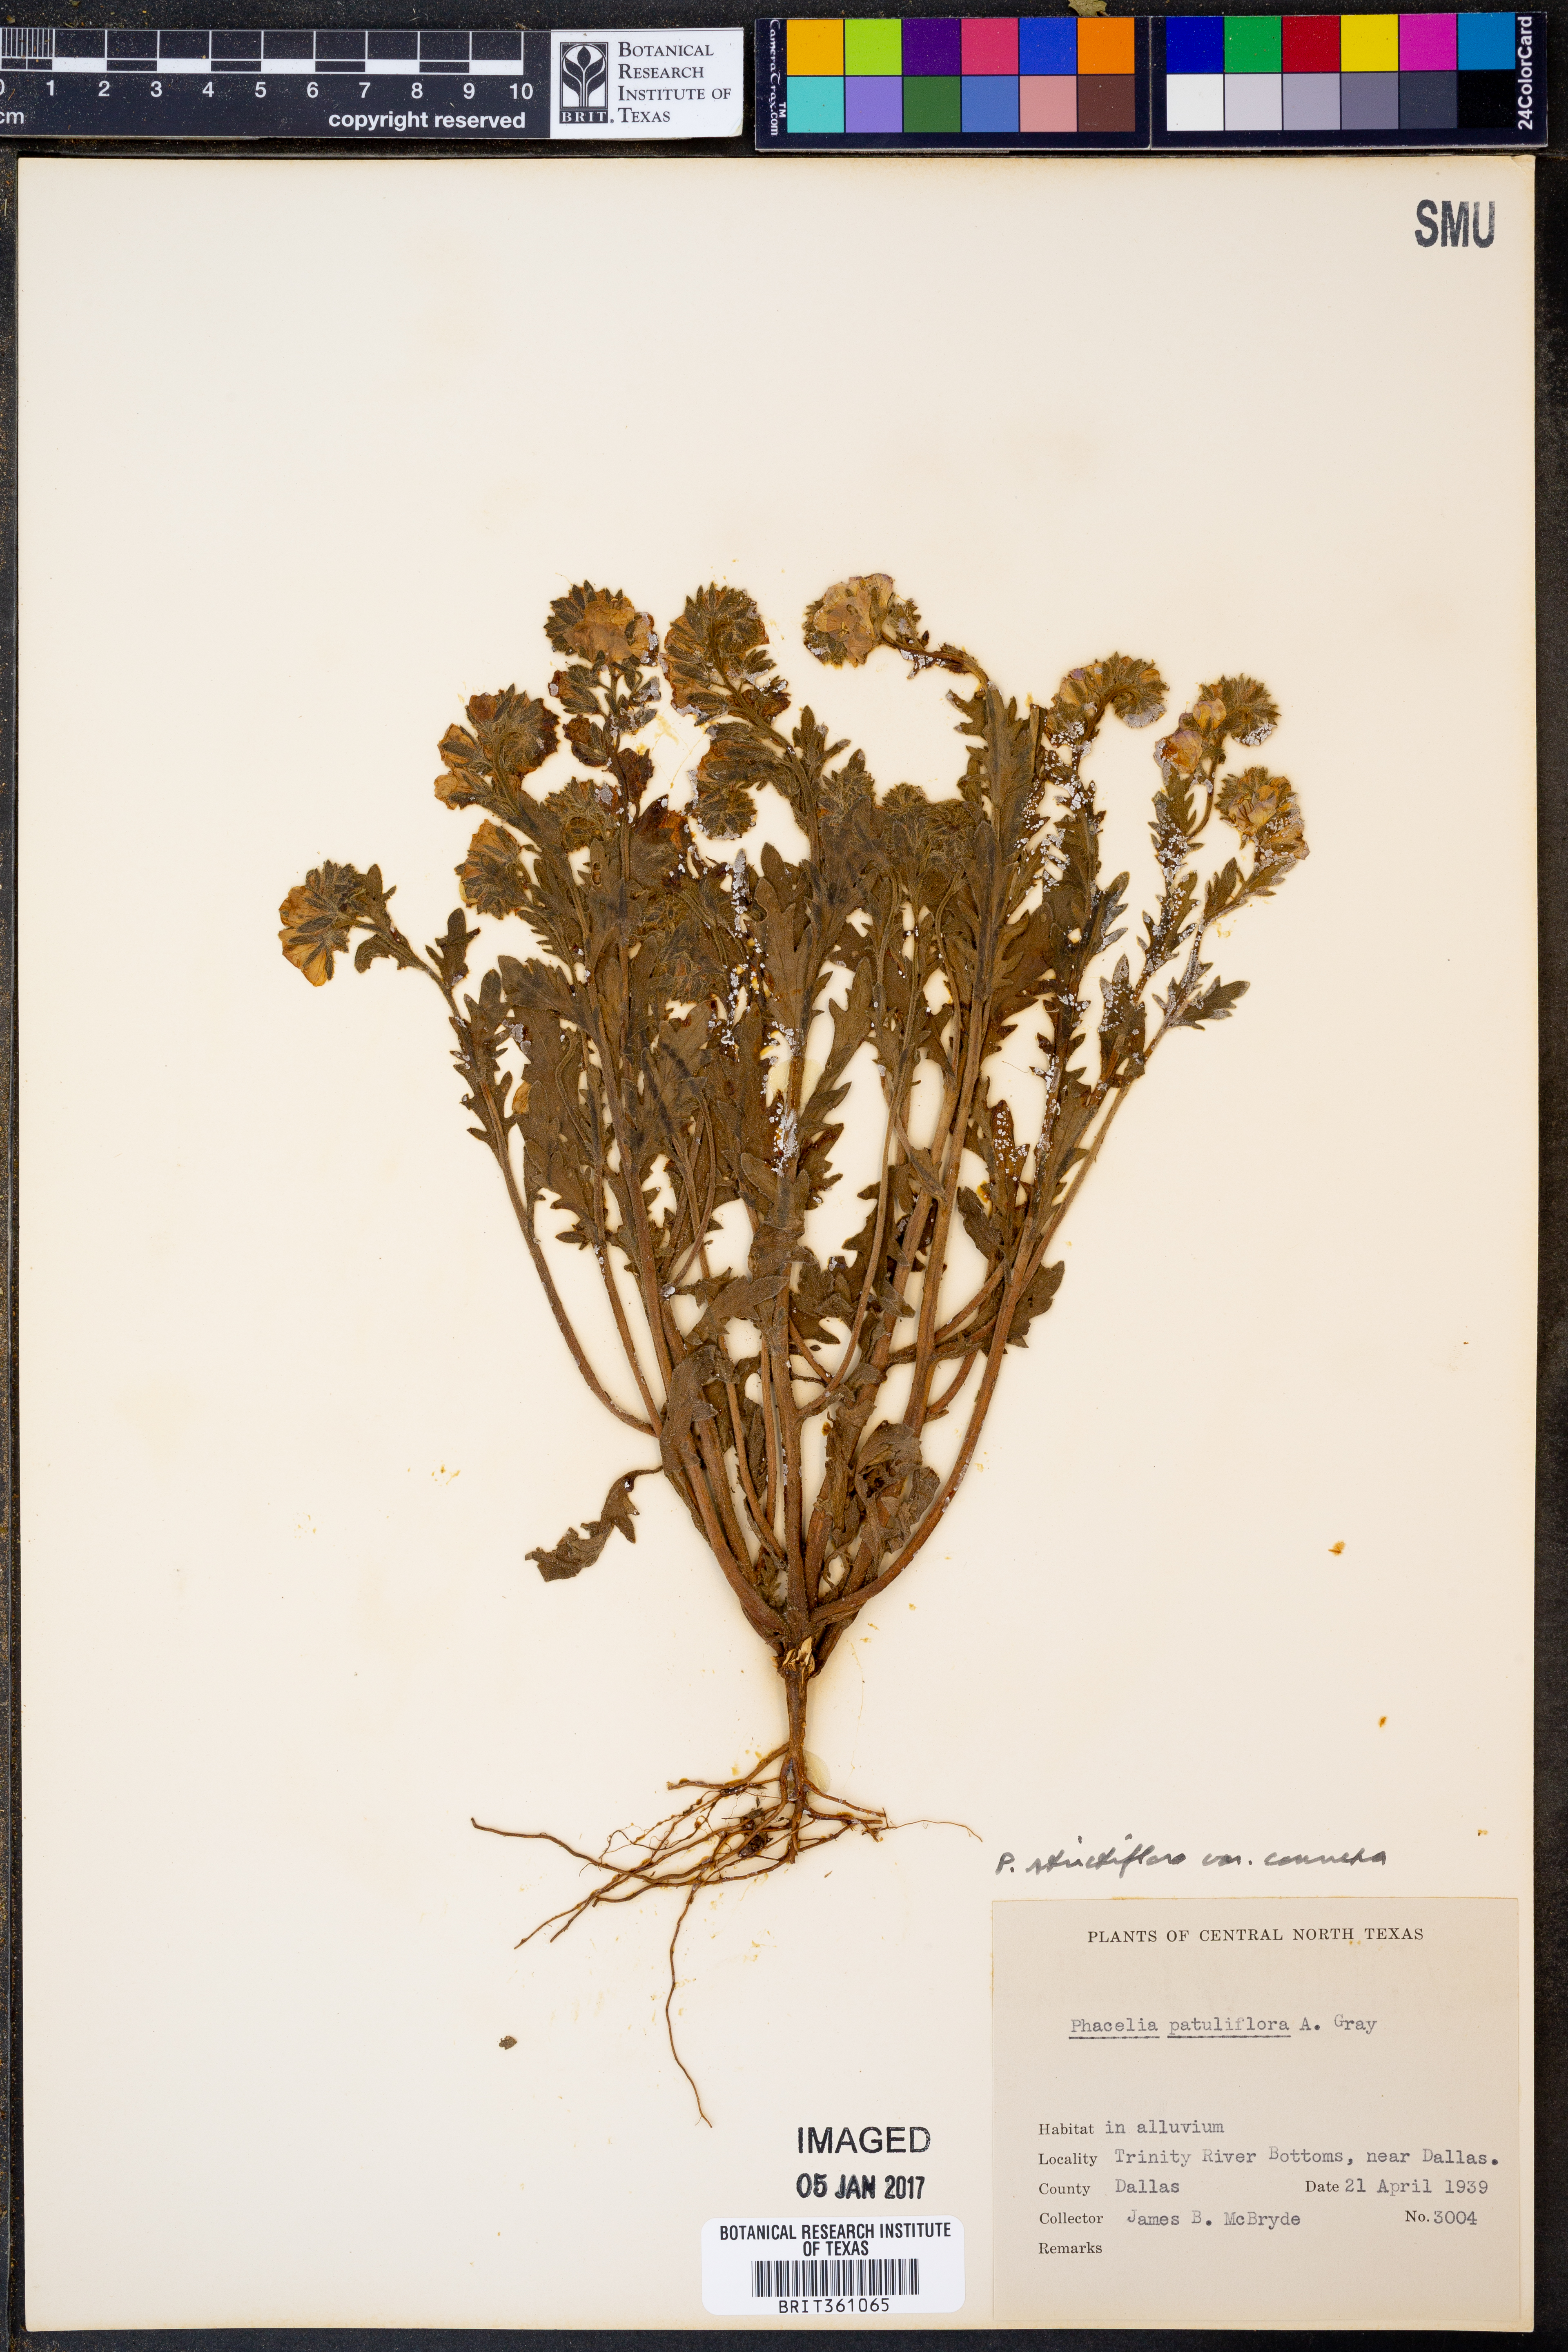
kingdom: Plantae
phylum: Tracheophyta
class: Magnoliopsida
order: Boraginales
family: Hydrophyllaceae
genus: Phacelia
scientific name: Phacelia strictiflora
